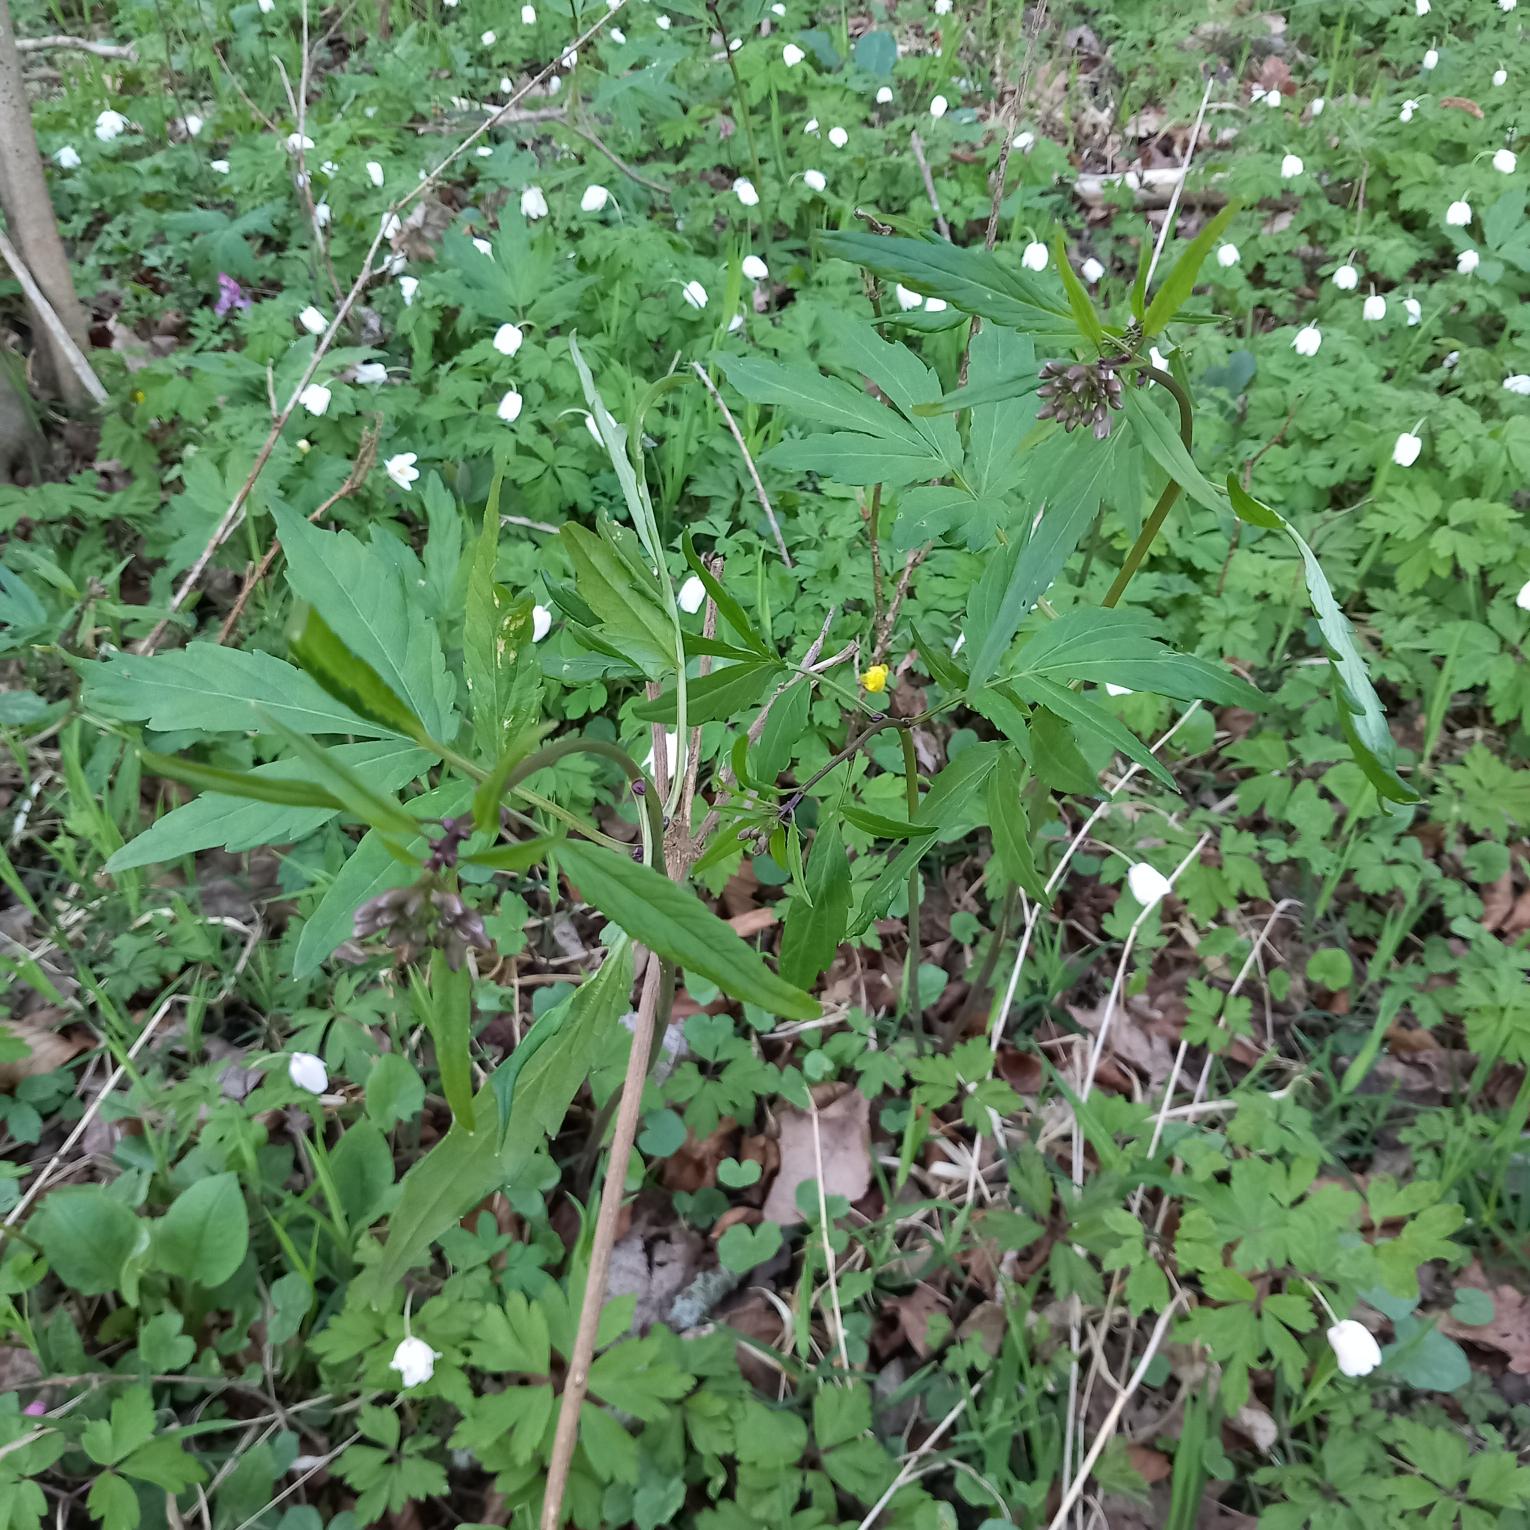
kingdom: Plantae
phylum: Tracheophyta
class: Magnoliopsida
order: Brassicales
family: Brassicaceae
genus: Cardamine
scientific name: Cardamine bulbifera
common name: Tandrod
